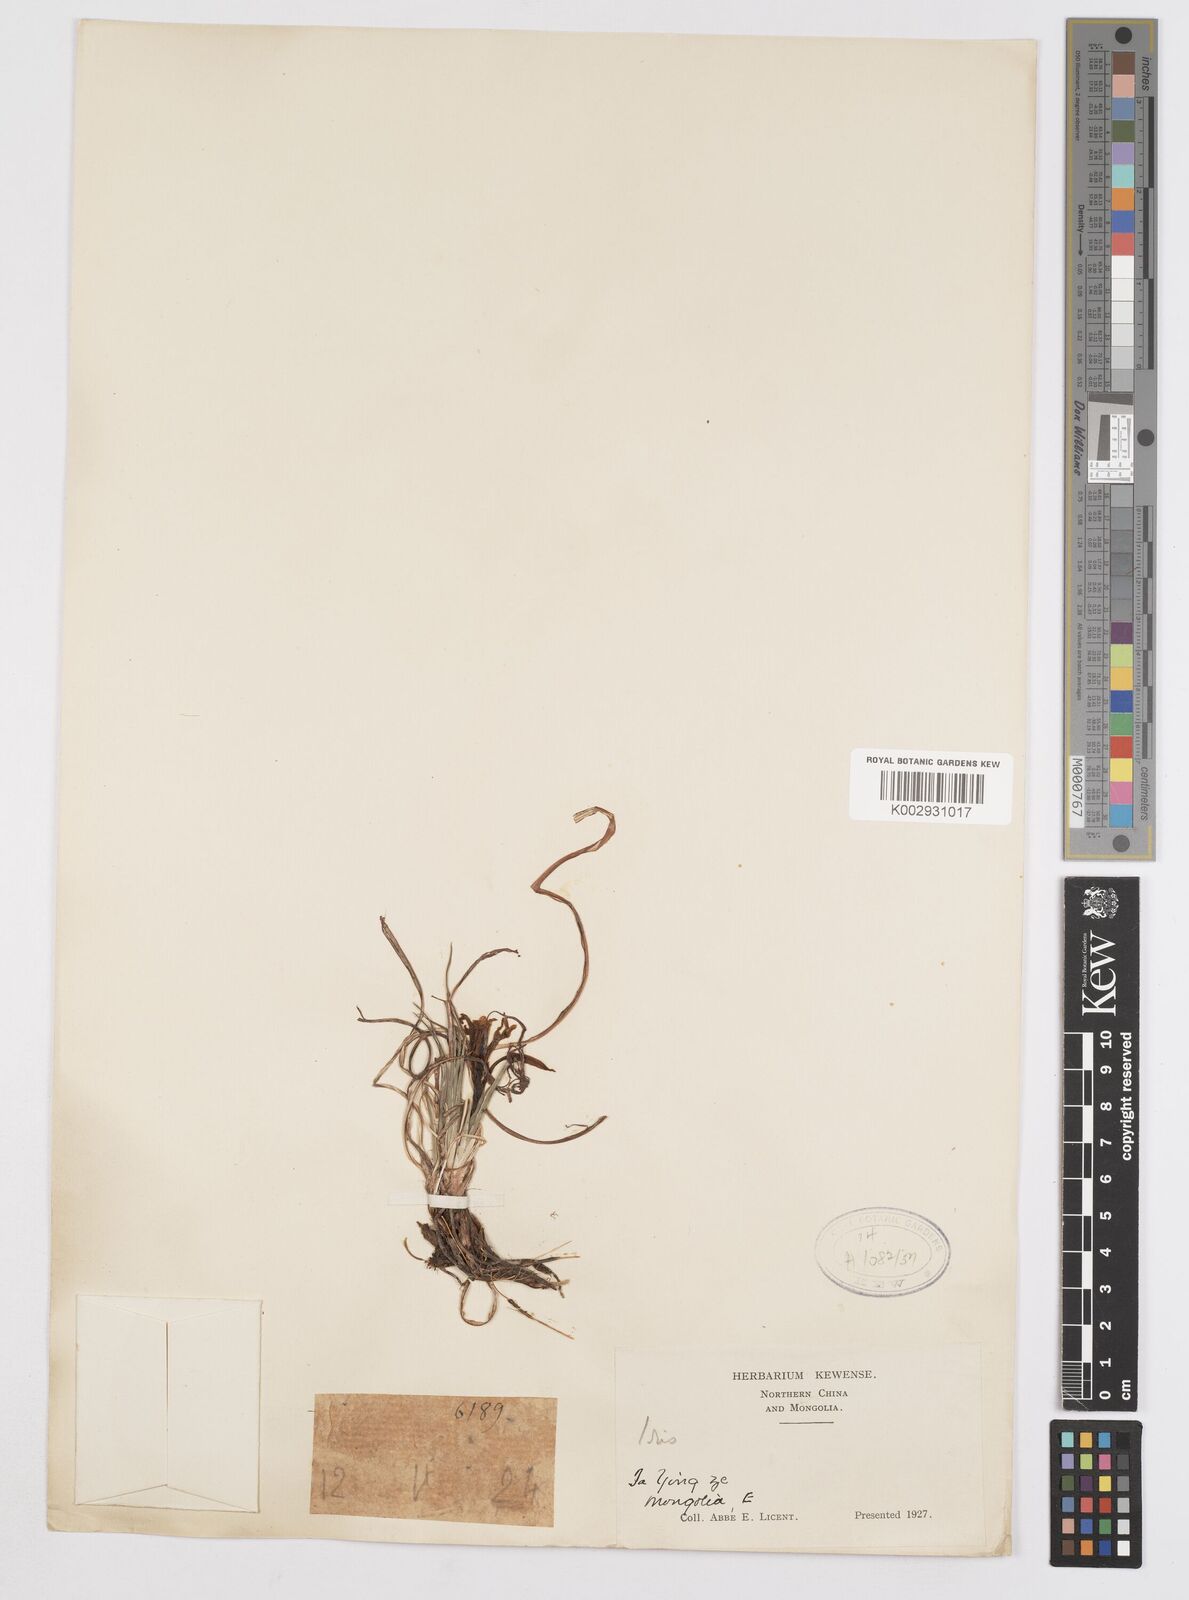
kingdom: Plantae
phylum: Tracheophyta
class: Liliopsida
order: Asparagales
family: Iridaceae
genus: Iris
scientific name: Iris
